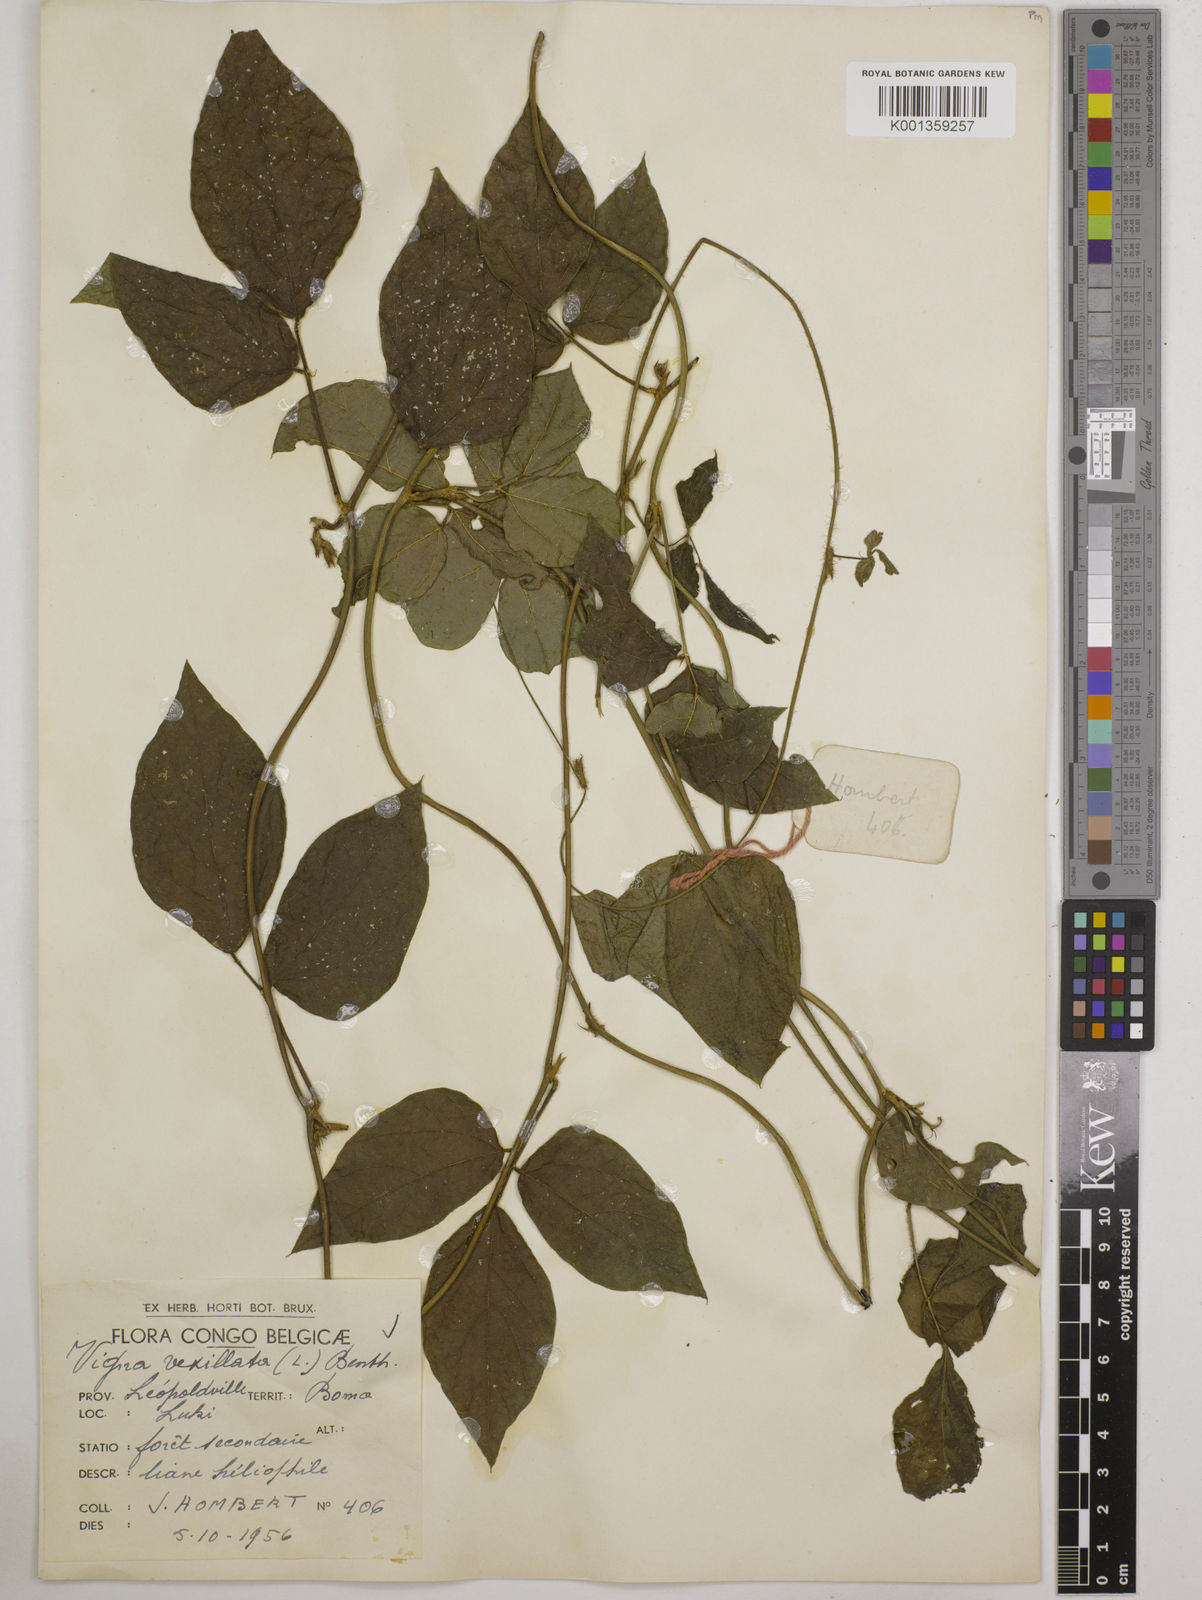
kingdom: Plantae
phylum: Tracheophyta
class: Magnoliopsida
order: Fabales
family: Fabaceae
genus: Vigna
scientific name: Vigna vexillata
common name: Zombi pea
